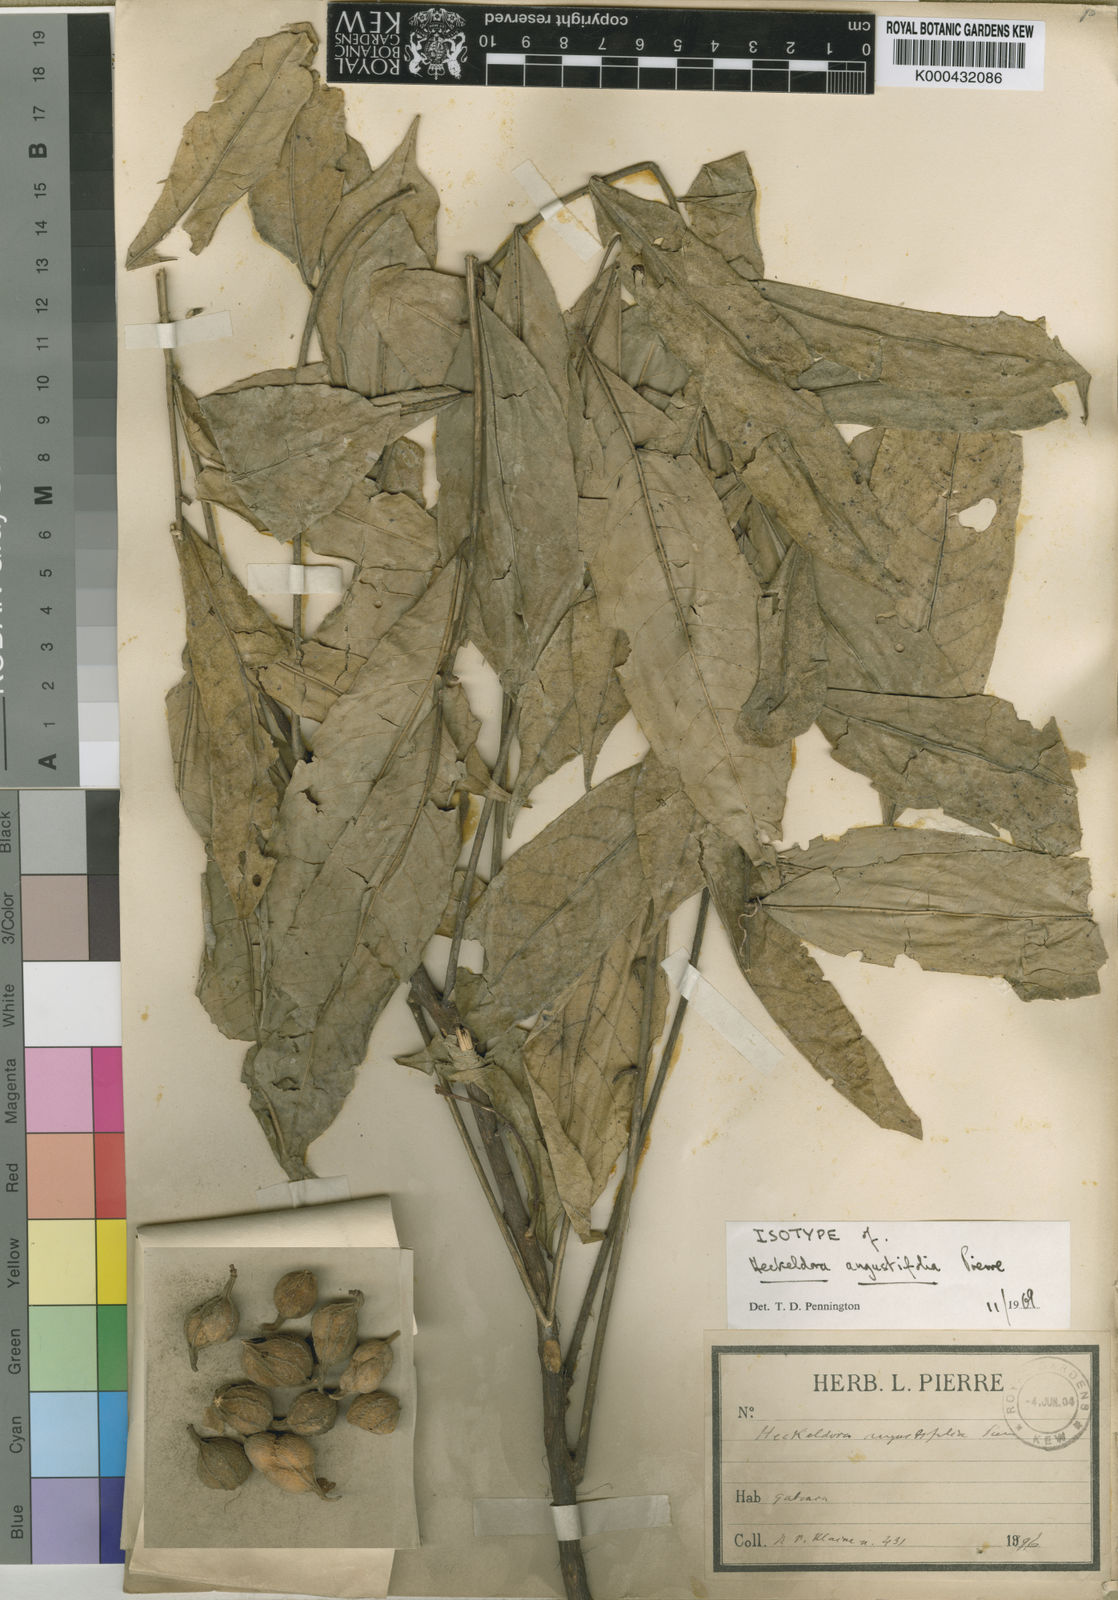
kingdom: Plantae
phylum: Tracheophyta
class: Magnoliopsida
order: Sapindales
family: Meliaceae
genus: Heckeldora
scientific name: Heckeldora staudtii
